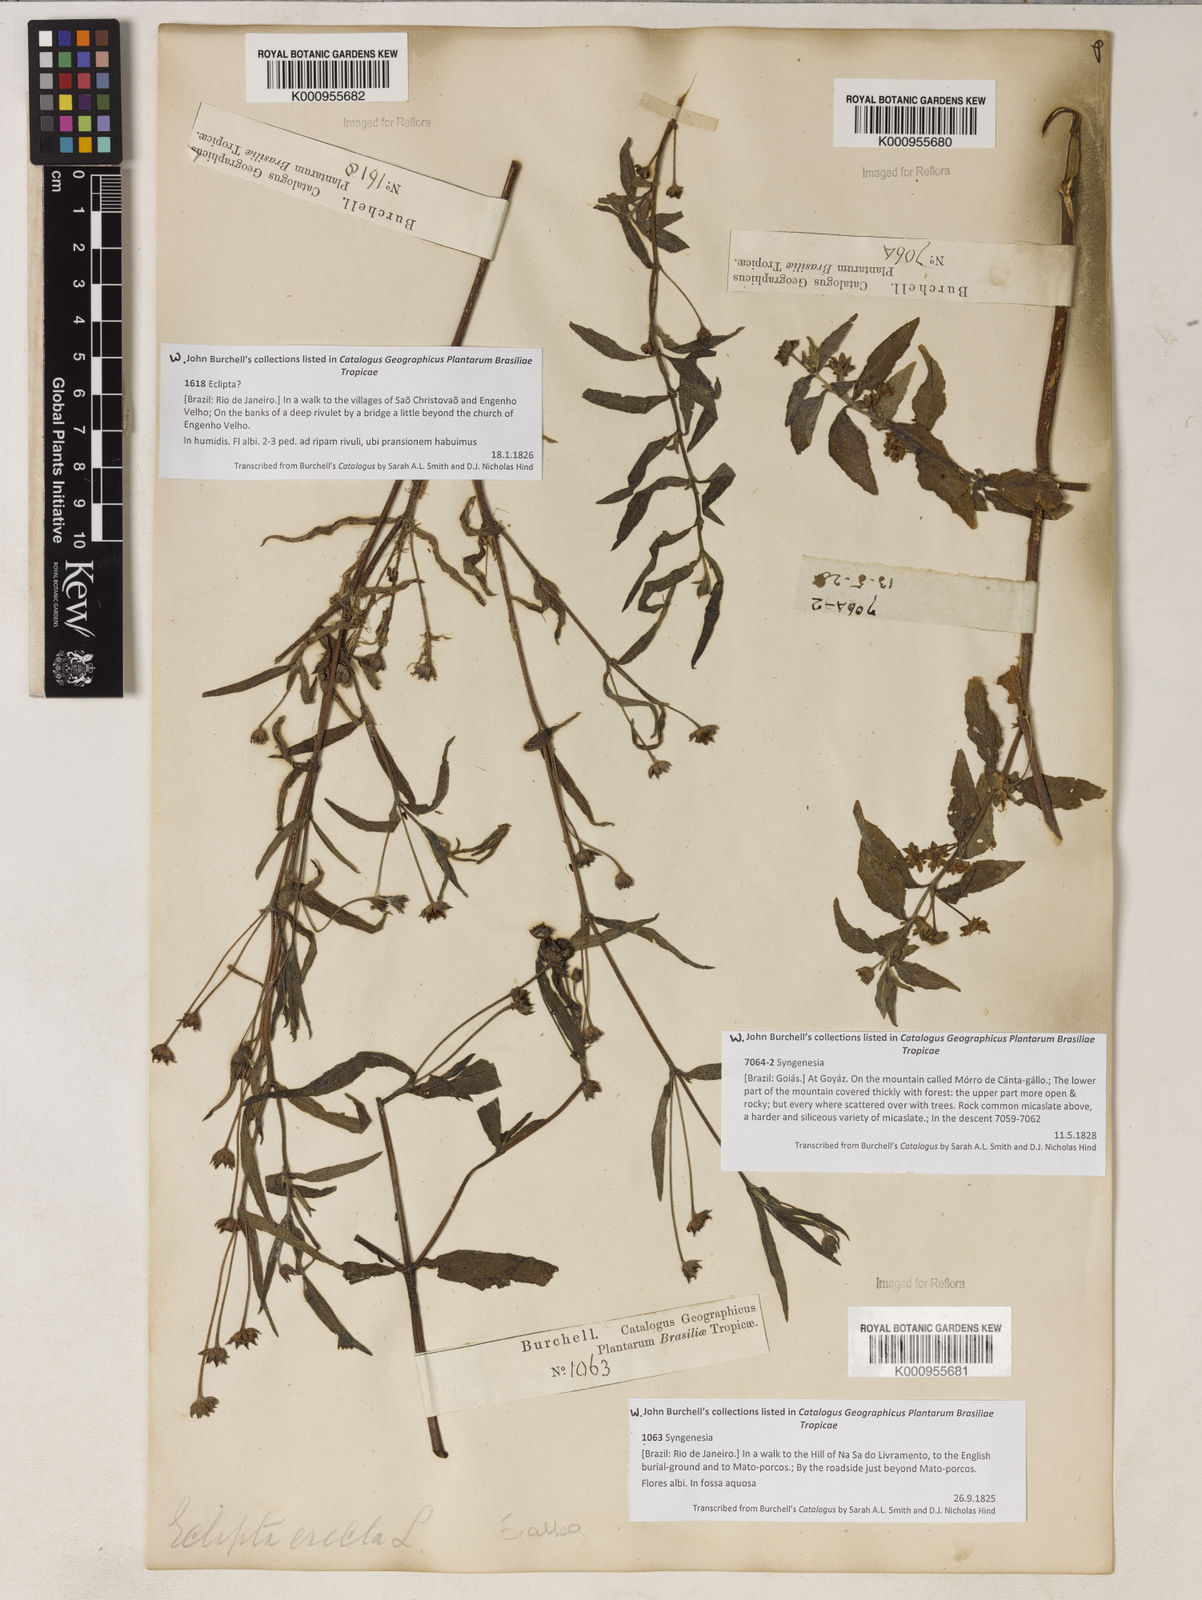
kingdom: Plantae
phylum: Tracheophyta
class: Magnoliopsida
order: Asterales
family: Asteraceae
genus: Eclipta
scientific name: Eclipta prostrata
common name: False daisy
